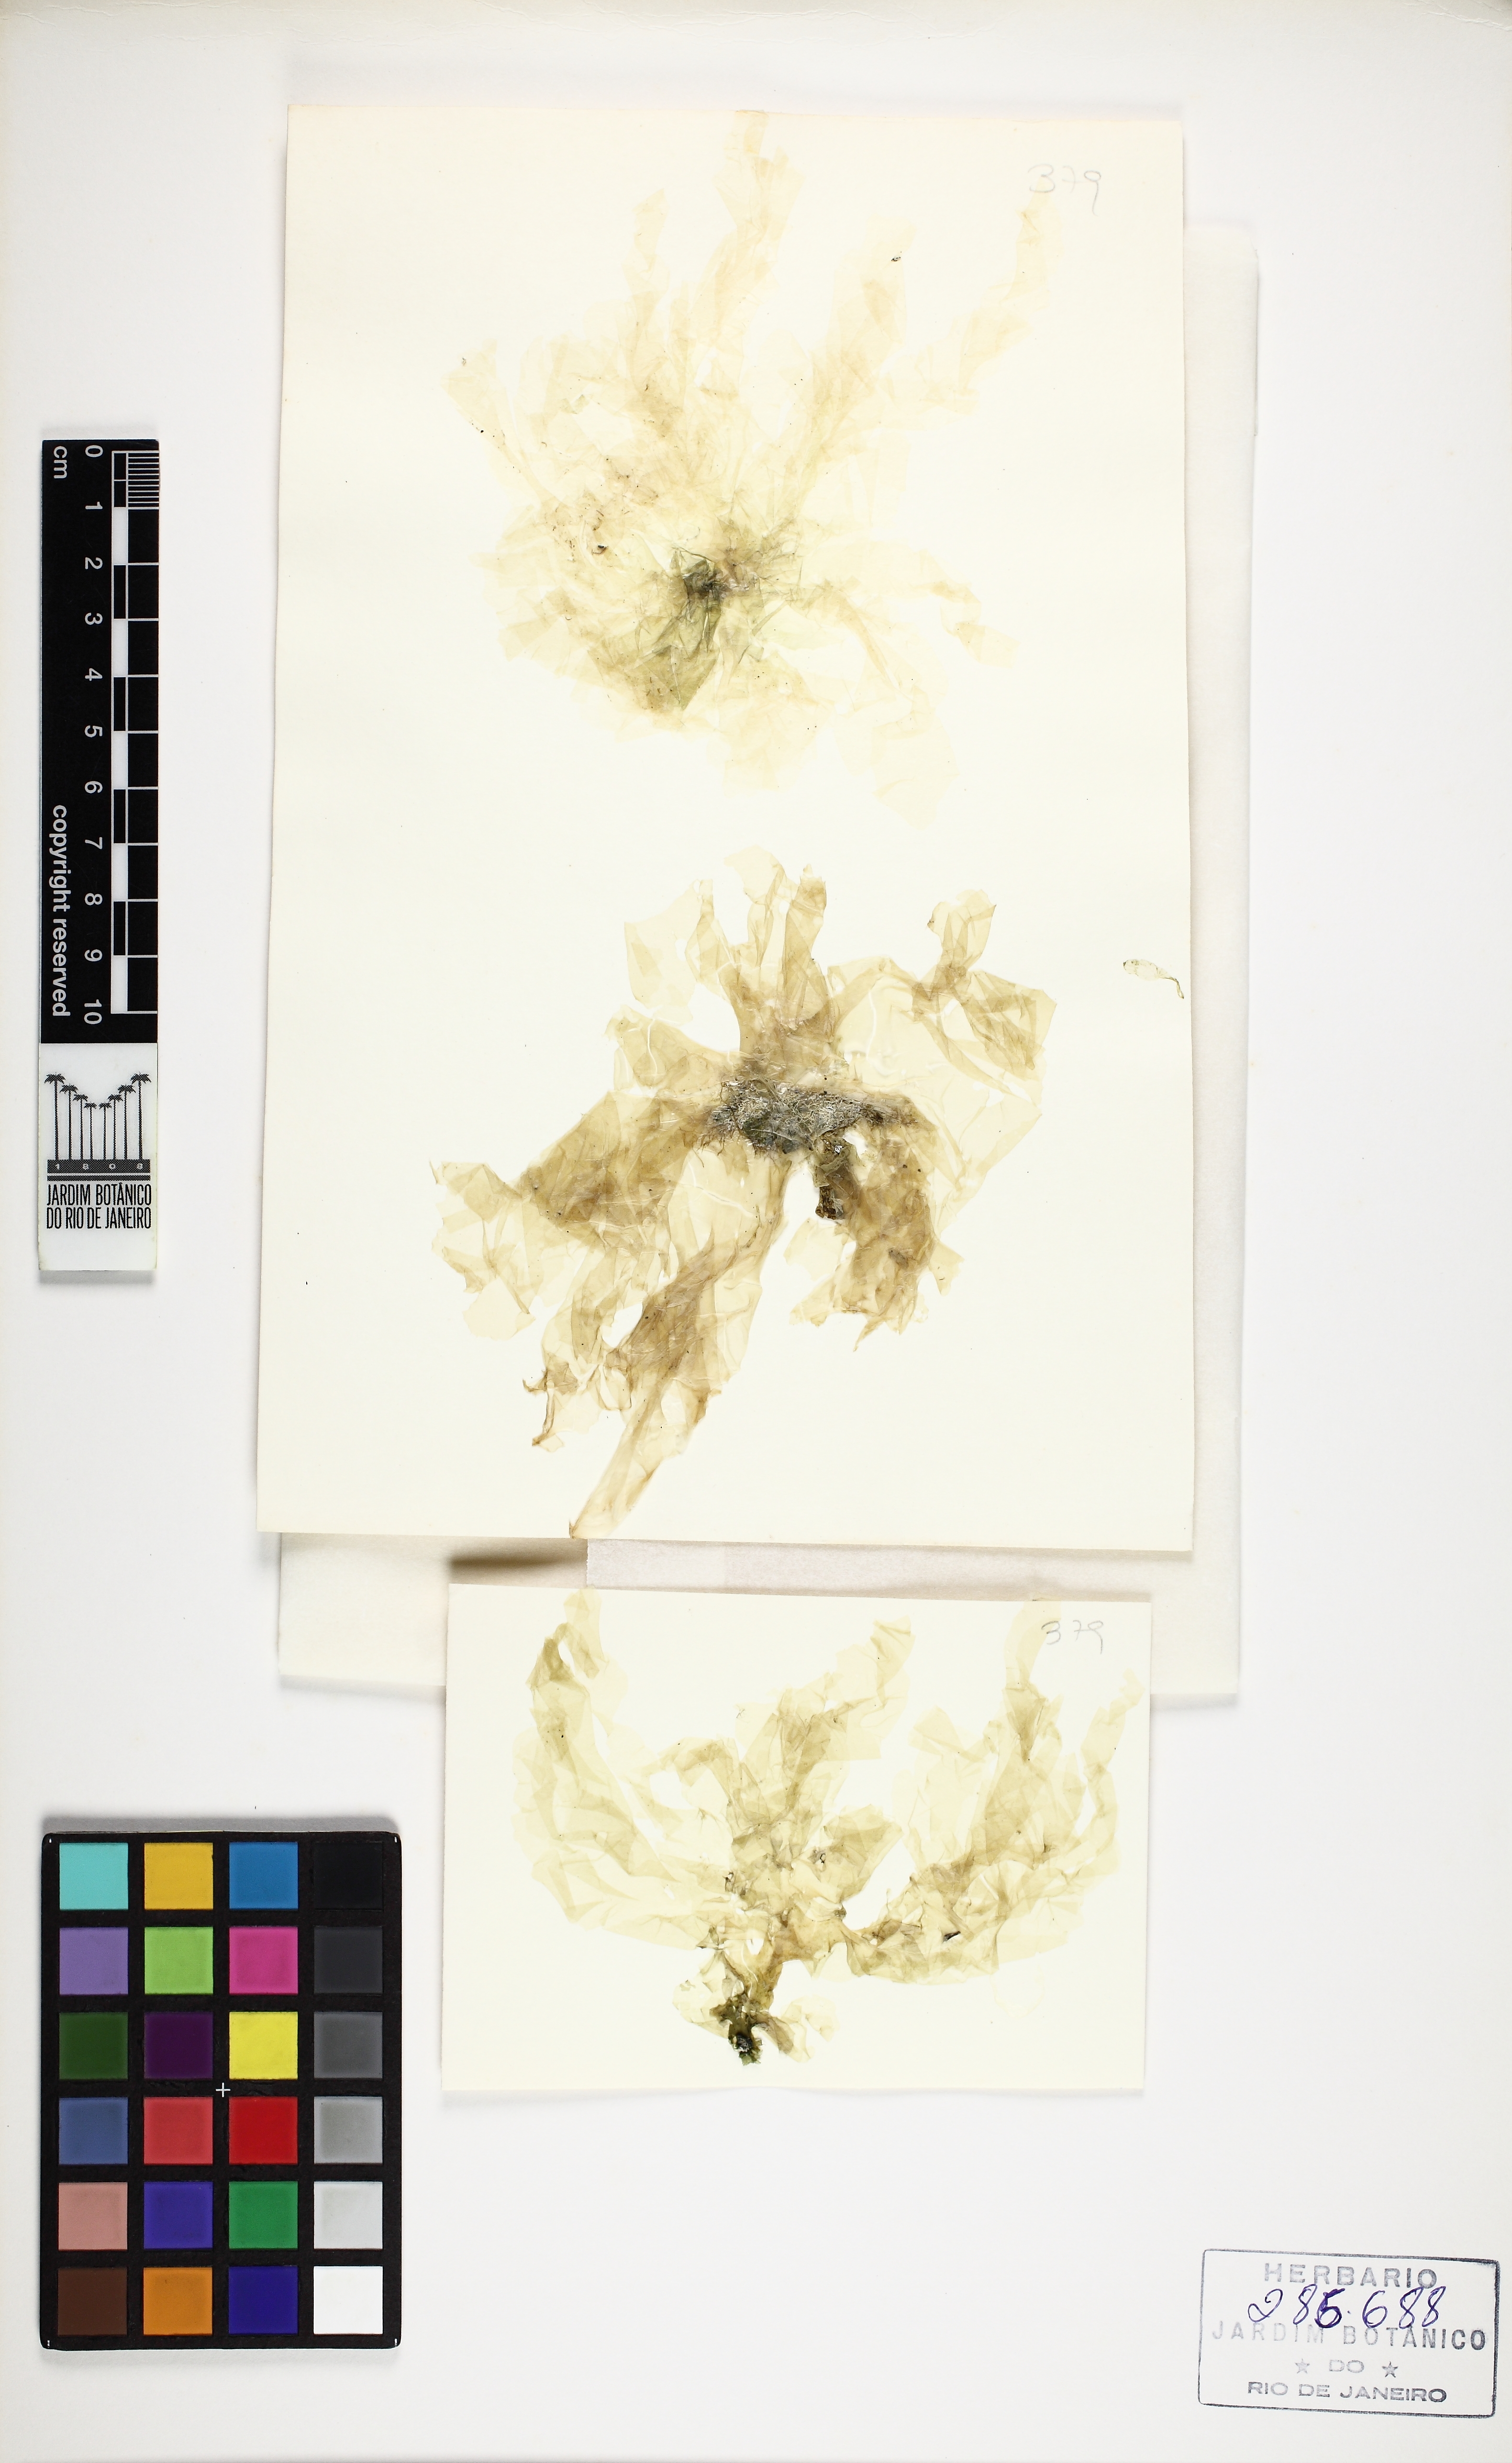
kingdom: Plantae
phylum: Chlorophyta
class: Ulvophyceae
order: Ulvales
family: Ulvaceae
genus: Ulva
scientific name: Ulva rigida
